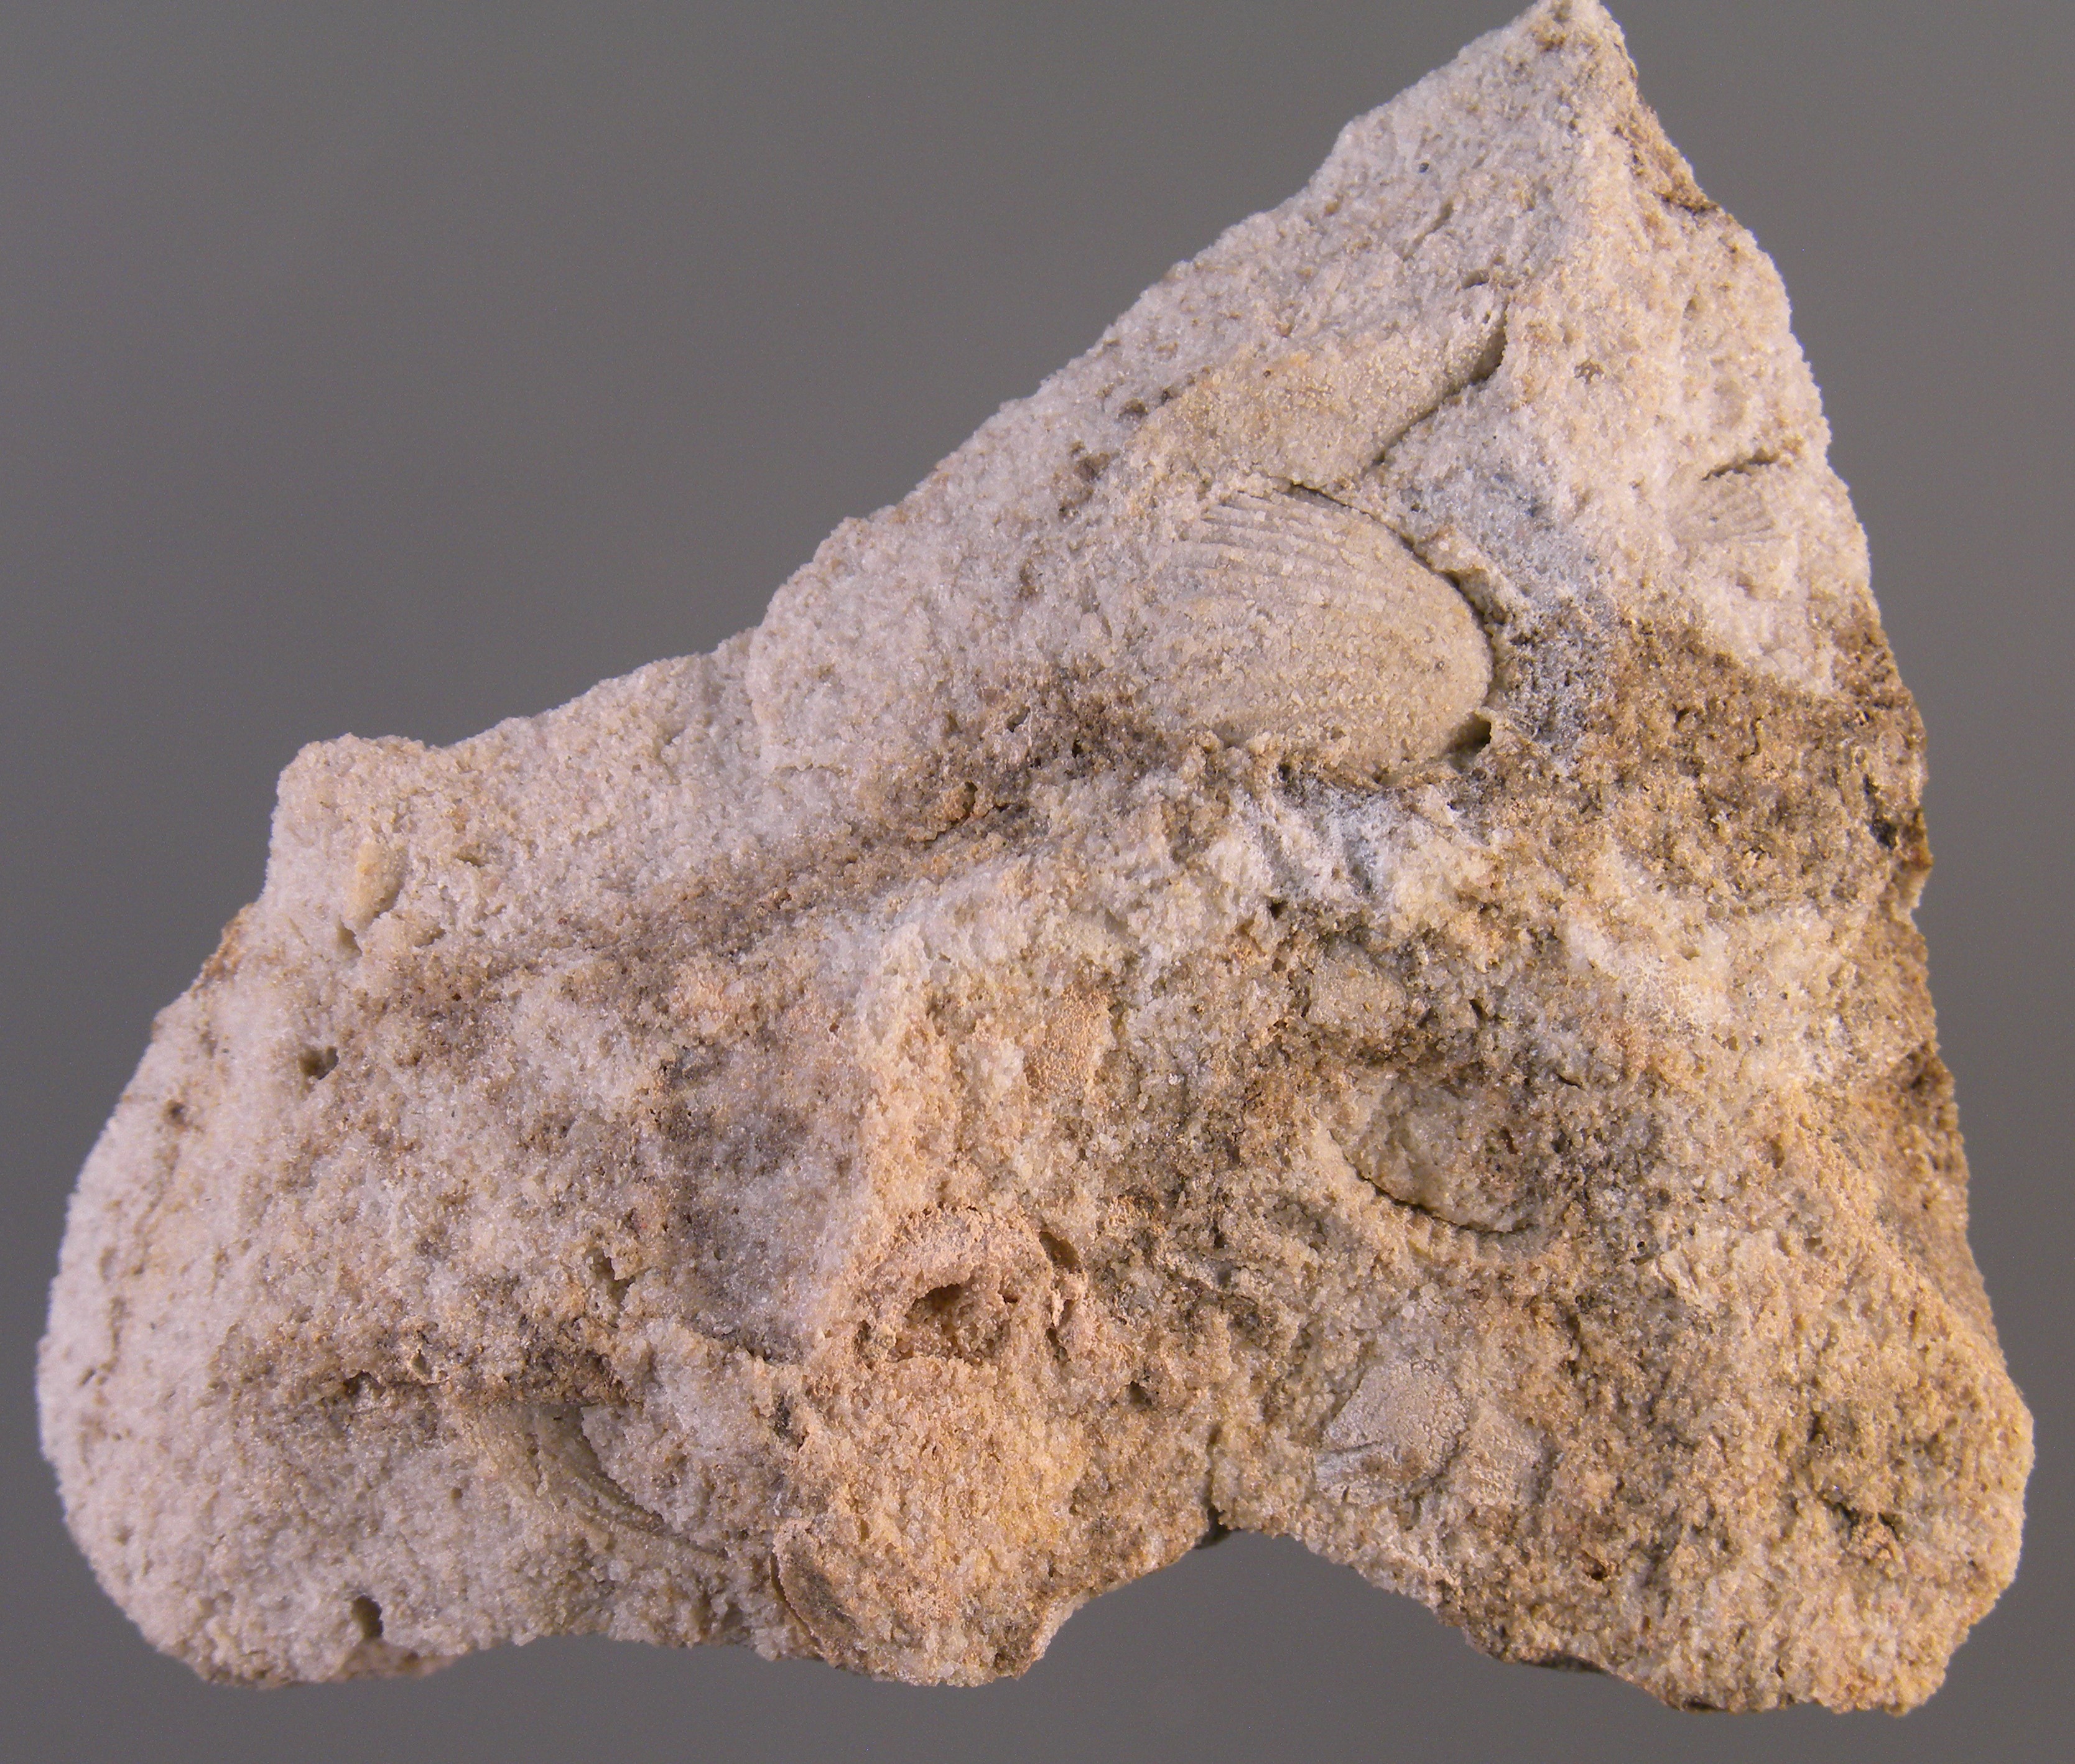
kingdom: Animalia
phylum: Mollusca
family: Tropidodiscidae
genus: Tropidodiscus
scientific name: Tropidodiscus
